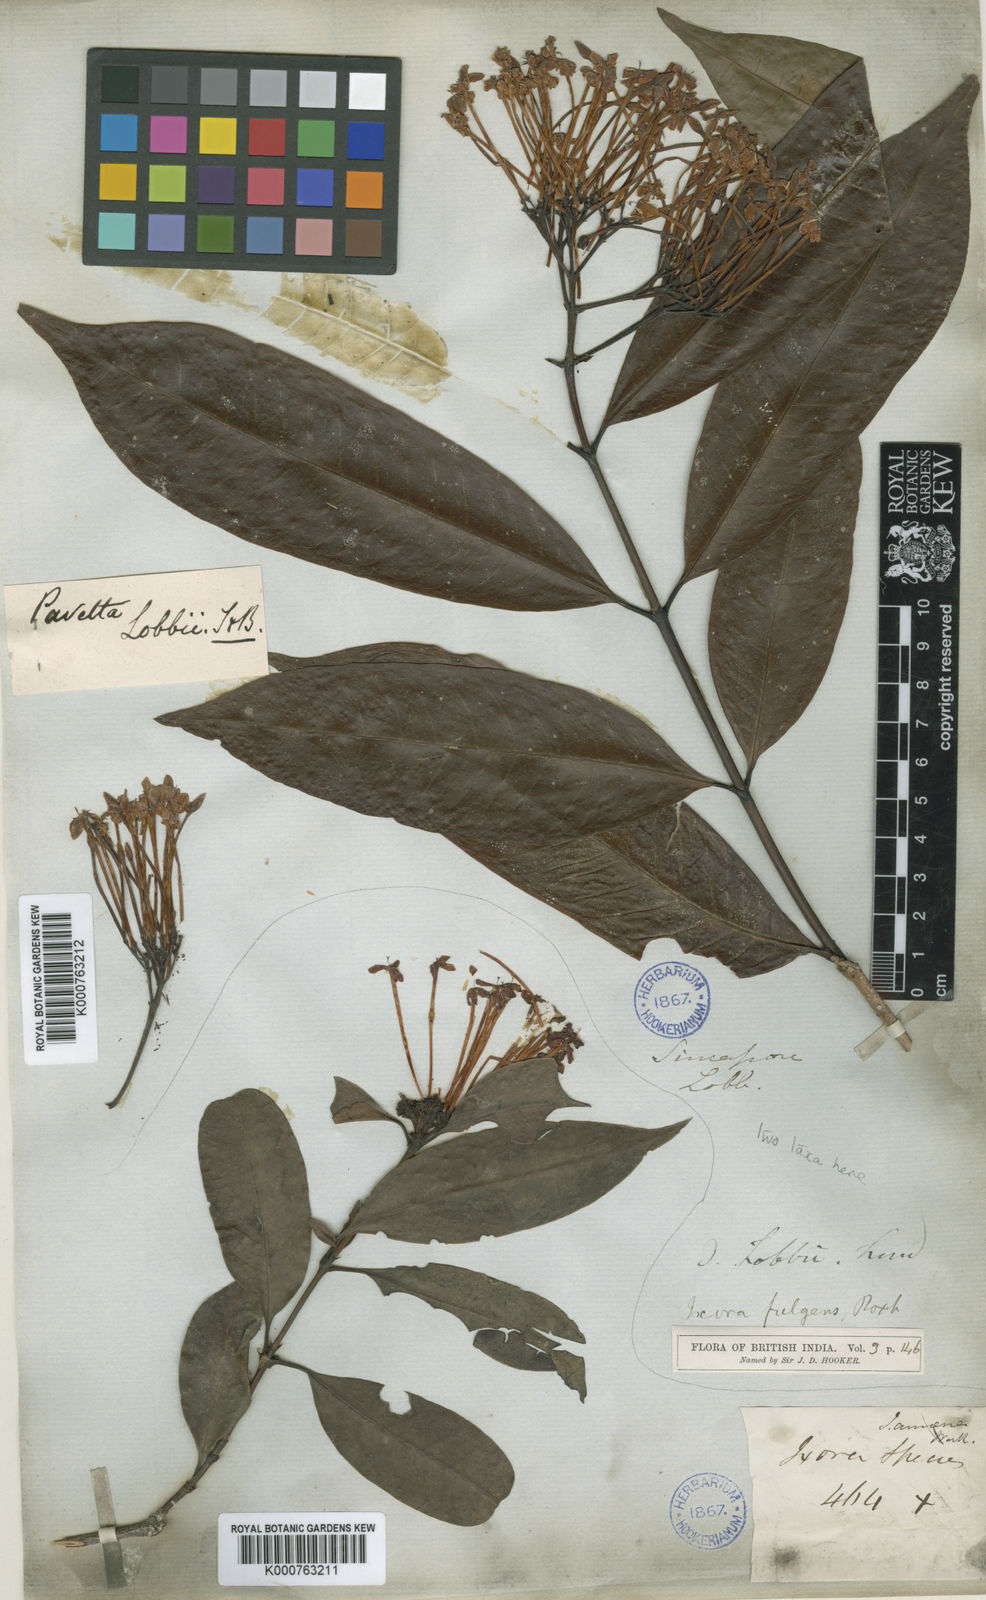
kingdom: Plantae
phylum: Tracheophyta
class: Magnoliopsida
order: Gentianales
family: Rubiaceae
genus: Ixora
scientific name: Ixora
